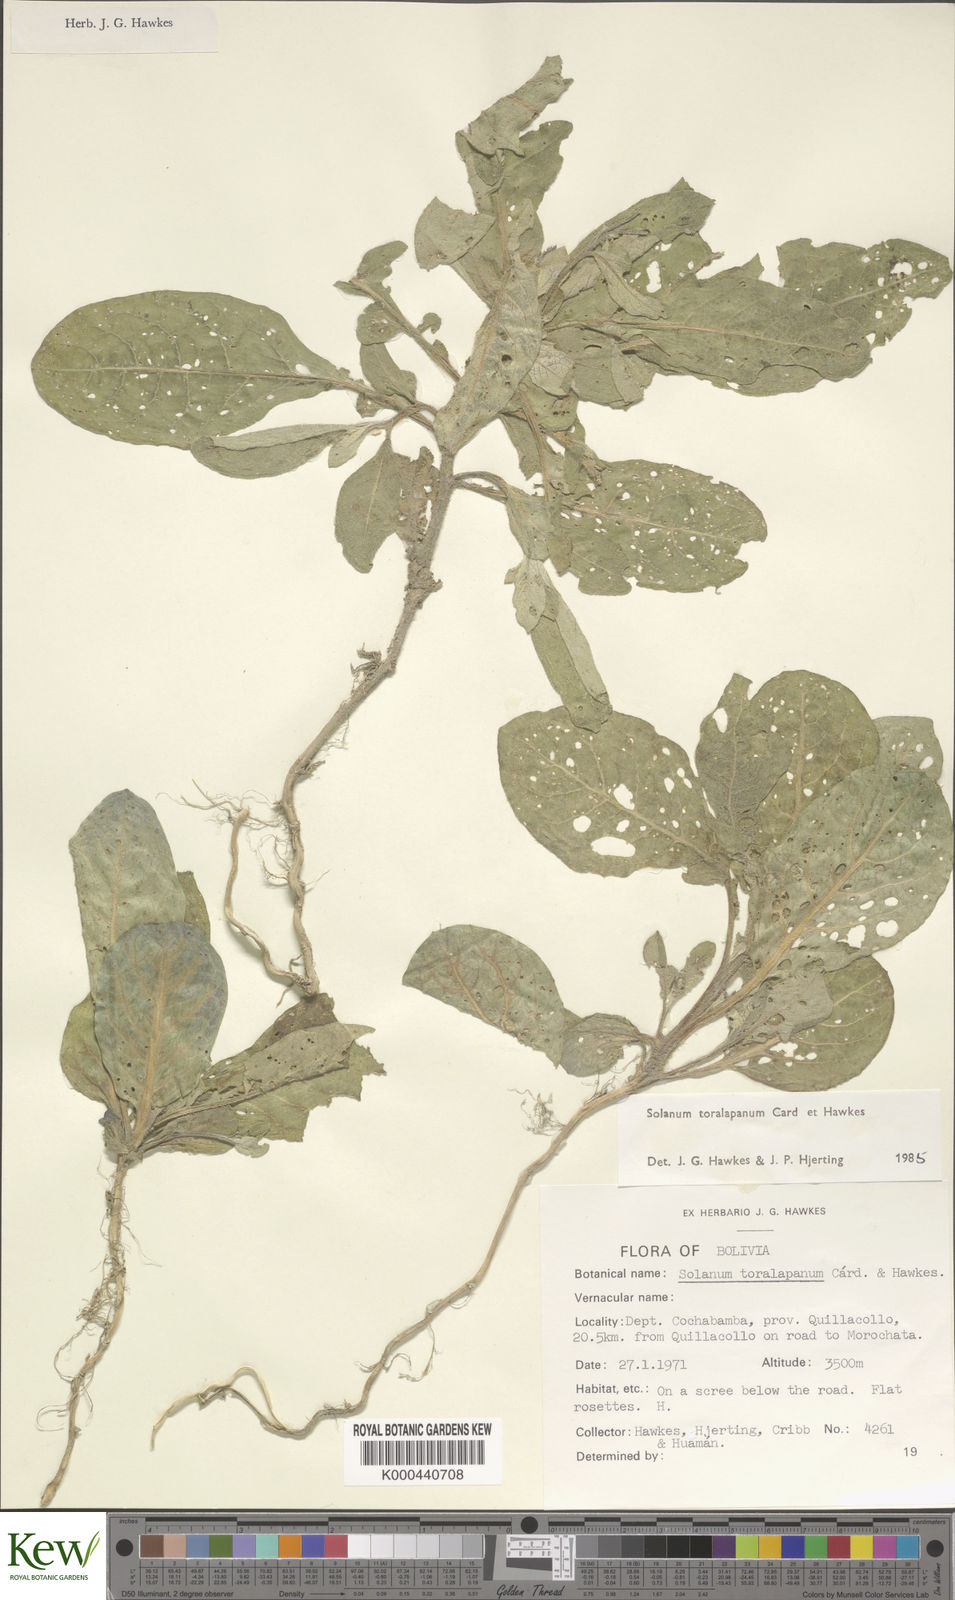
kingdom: Plantae
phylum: Tracheophyta
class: Magnoliopsida
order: Solanales
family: Solanaceae
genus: Solanum
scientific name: Solanum boliviense
